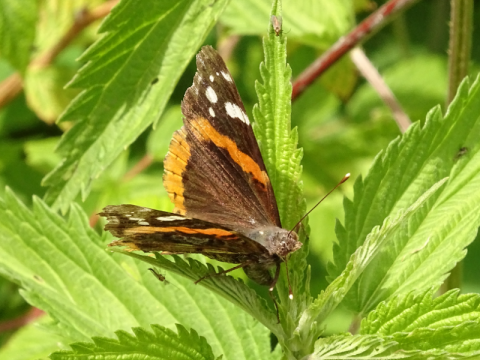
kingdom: Animalia
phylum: Arthropoda
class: Insecta
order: Lepidoptera
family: Nymphalidae
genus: Vanessa
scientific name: Vanessa atalanta
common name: Red Admiral
